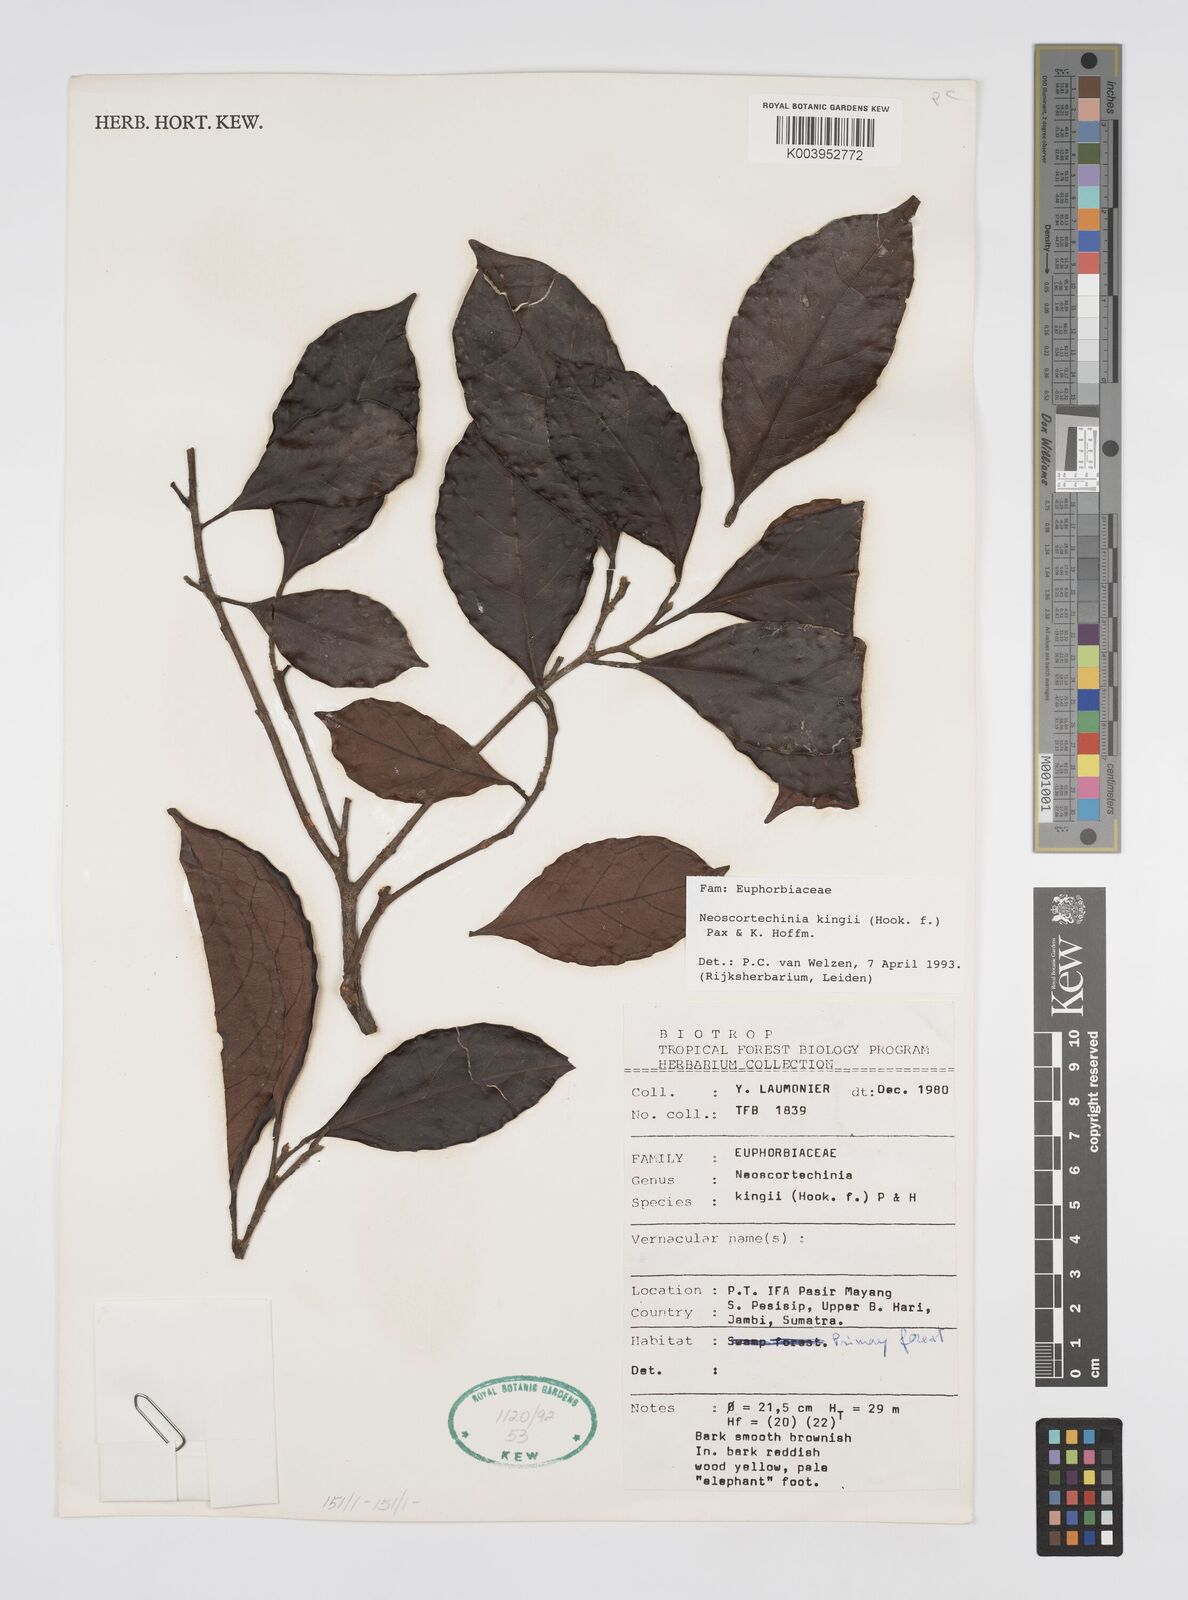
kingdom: Plantae
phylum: Tracheophyta
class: Magnoliopsida
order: Malpighiales
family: Euphorbiaceae
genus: Neoscortechinia
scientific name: Neoscortechinia kingii
